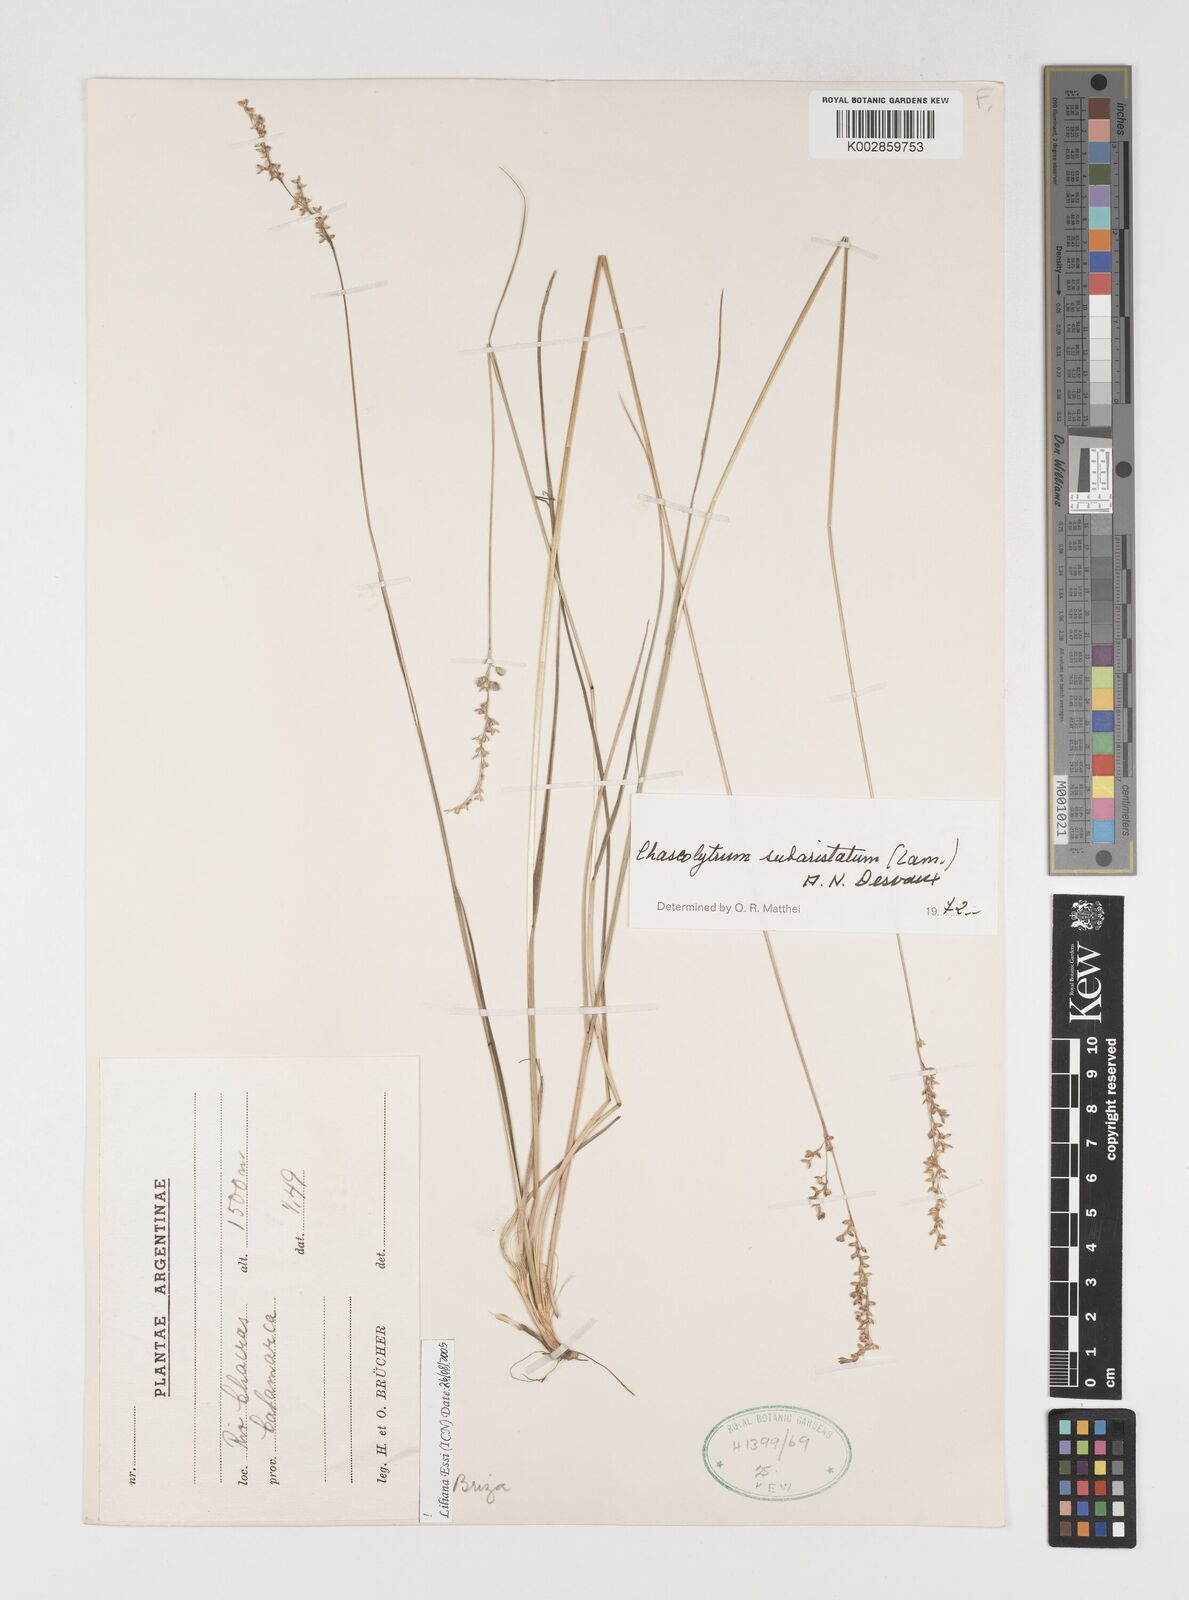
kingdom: Plantae
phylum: Tracheophyta
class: Liliopsida
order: Poales
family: Poaceae
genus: Chascolytrum
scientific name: Chascolytrum subaristatum
